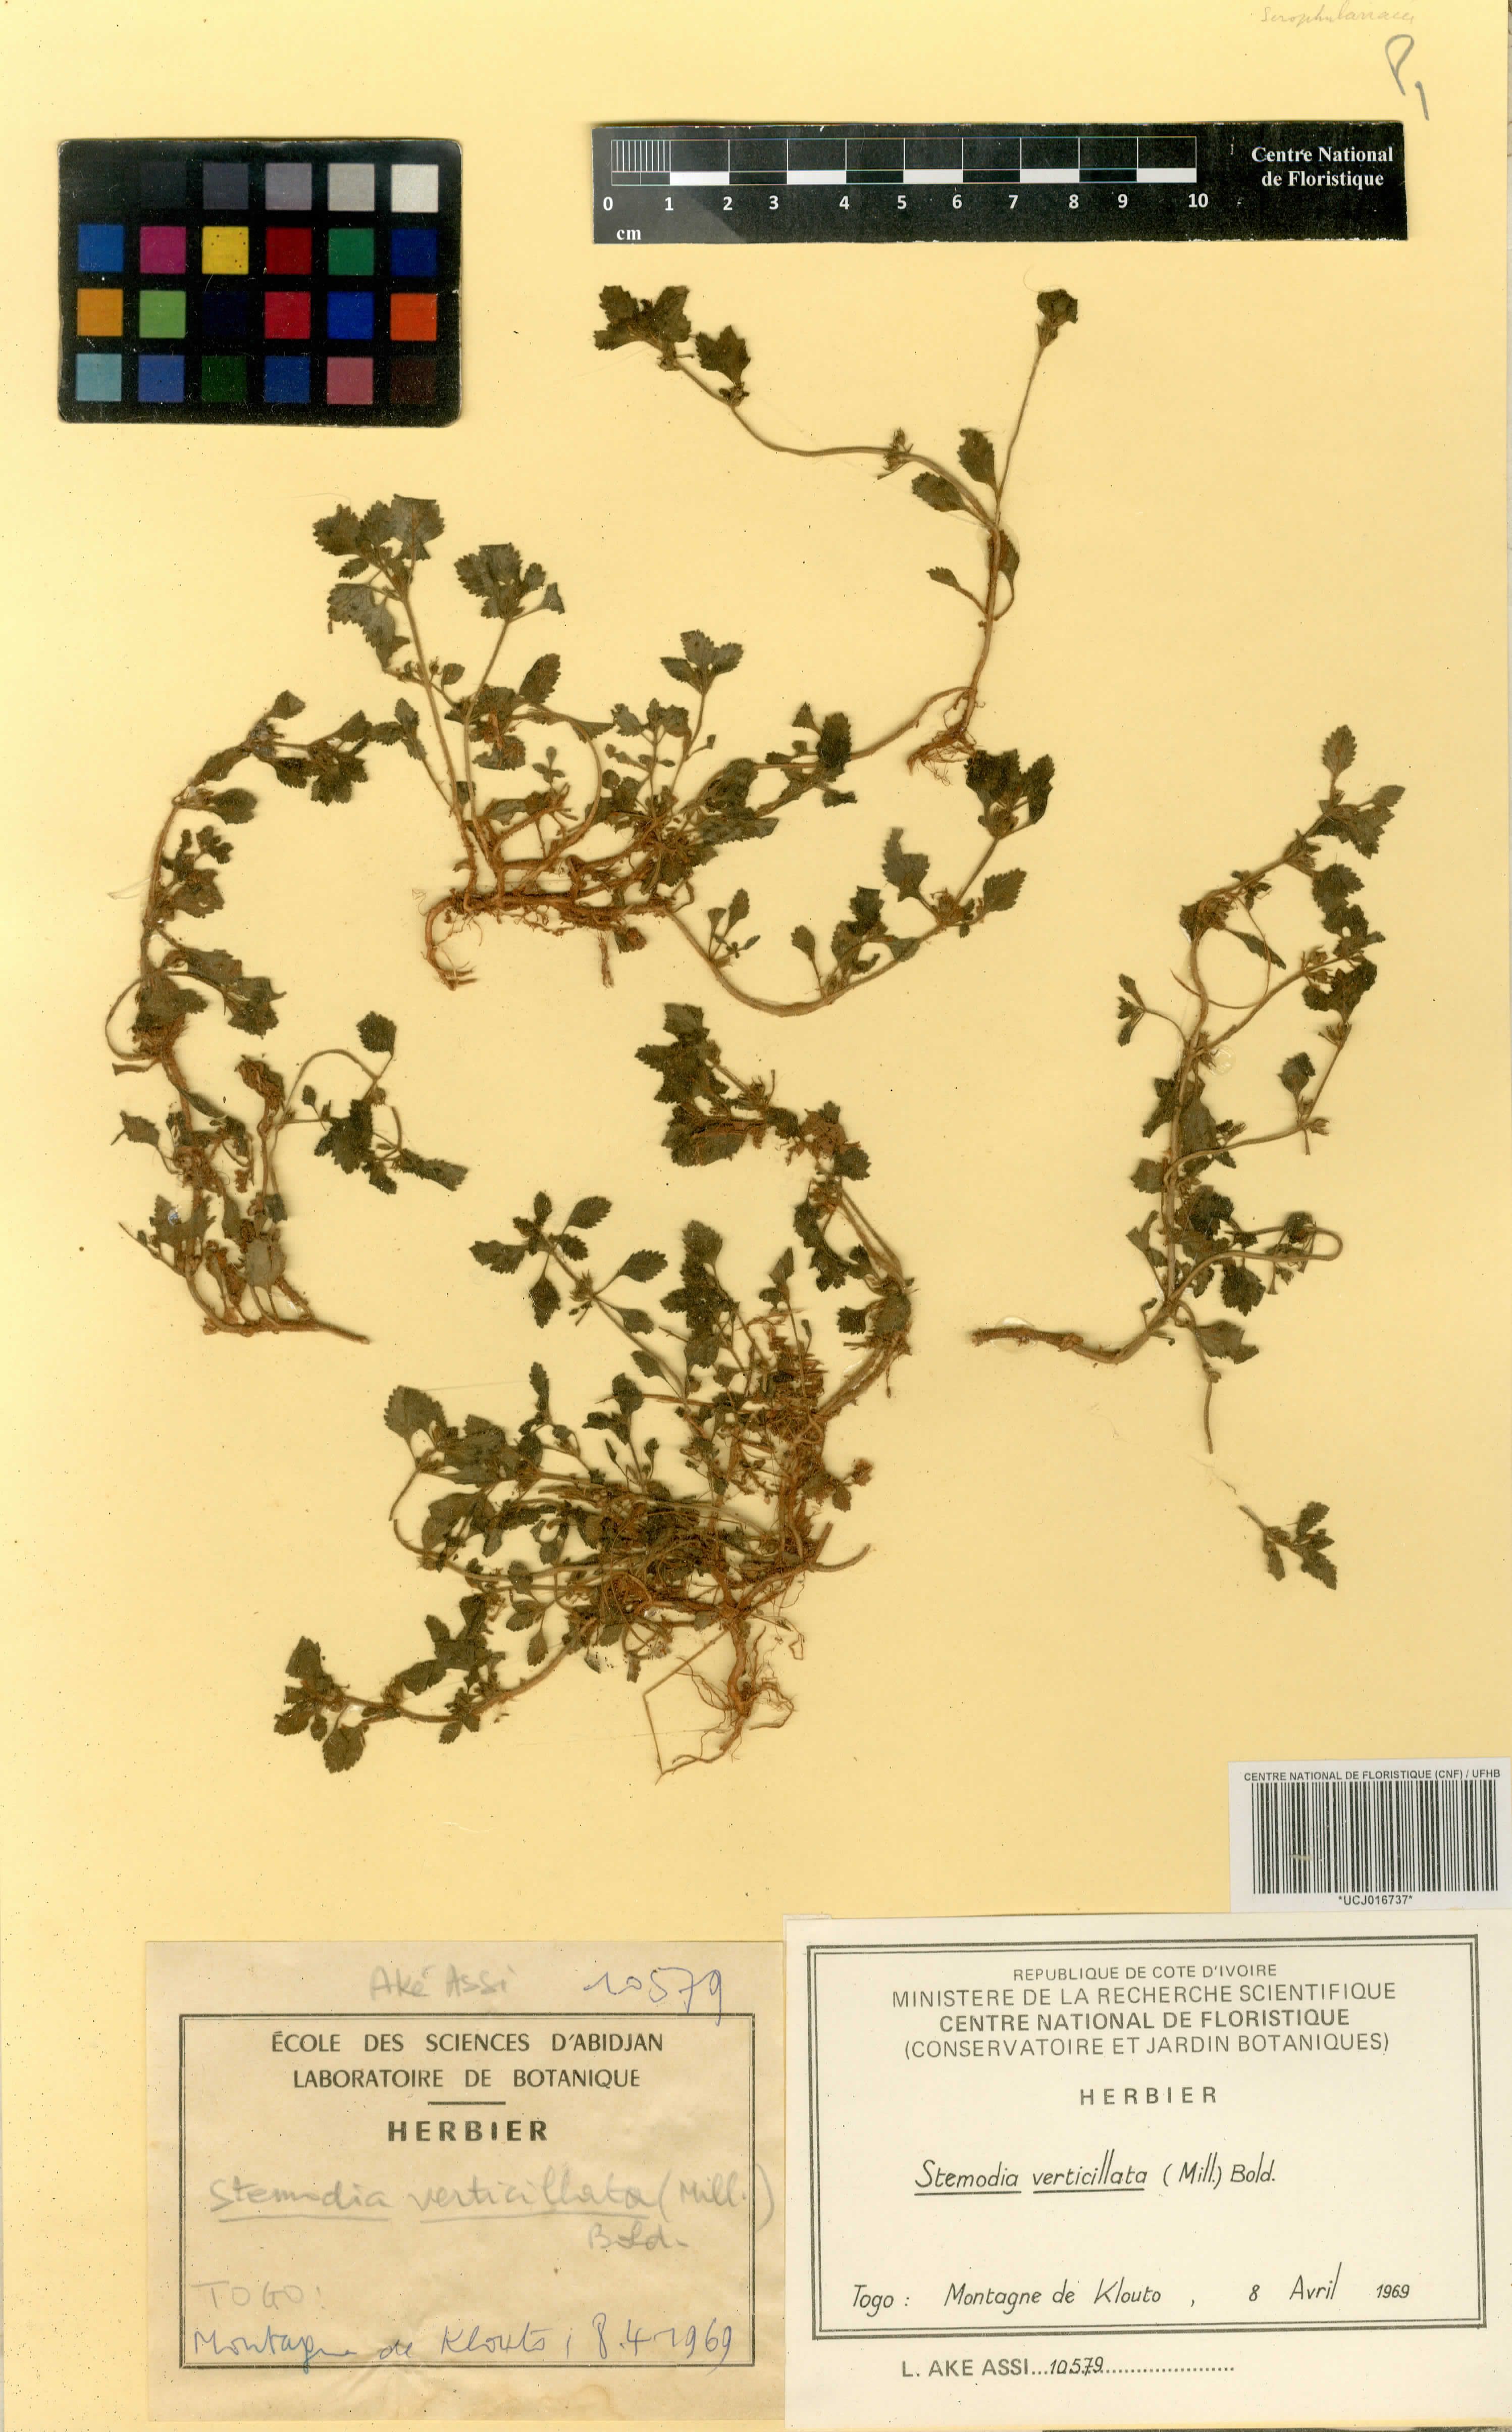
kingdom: Plantae
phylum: Tracheophyta
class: Magnoliopsida
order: Lamiales
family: Plantaginaceae
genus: Stemodia
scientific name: Stemodia verticillata
